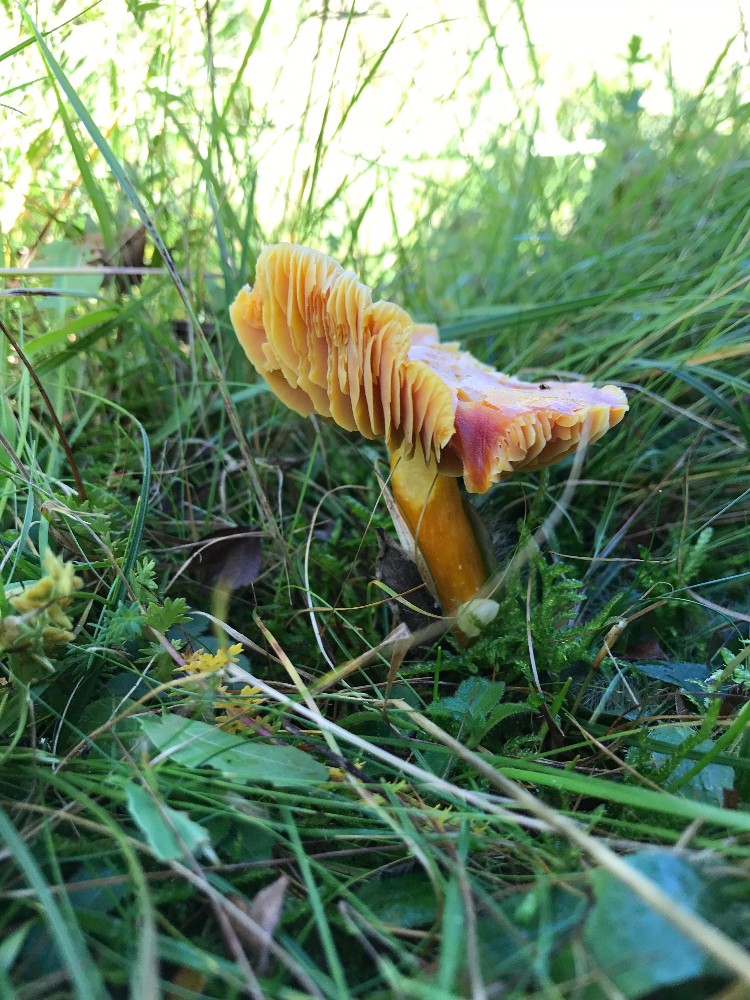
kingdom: Fungi
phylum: Basidiomycota
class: Agaricomycetes
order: Agaricales
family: Hygrophoraceae
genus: Hygrocybe
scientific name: Hygrocybe punicea
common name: skarlagen-vokshat
